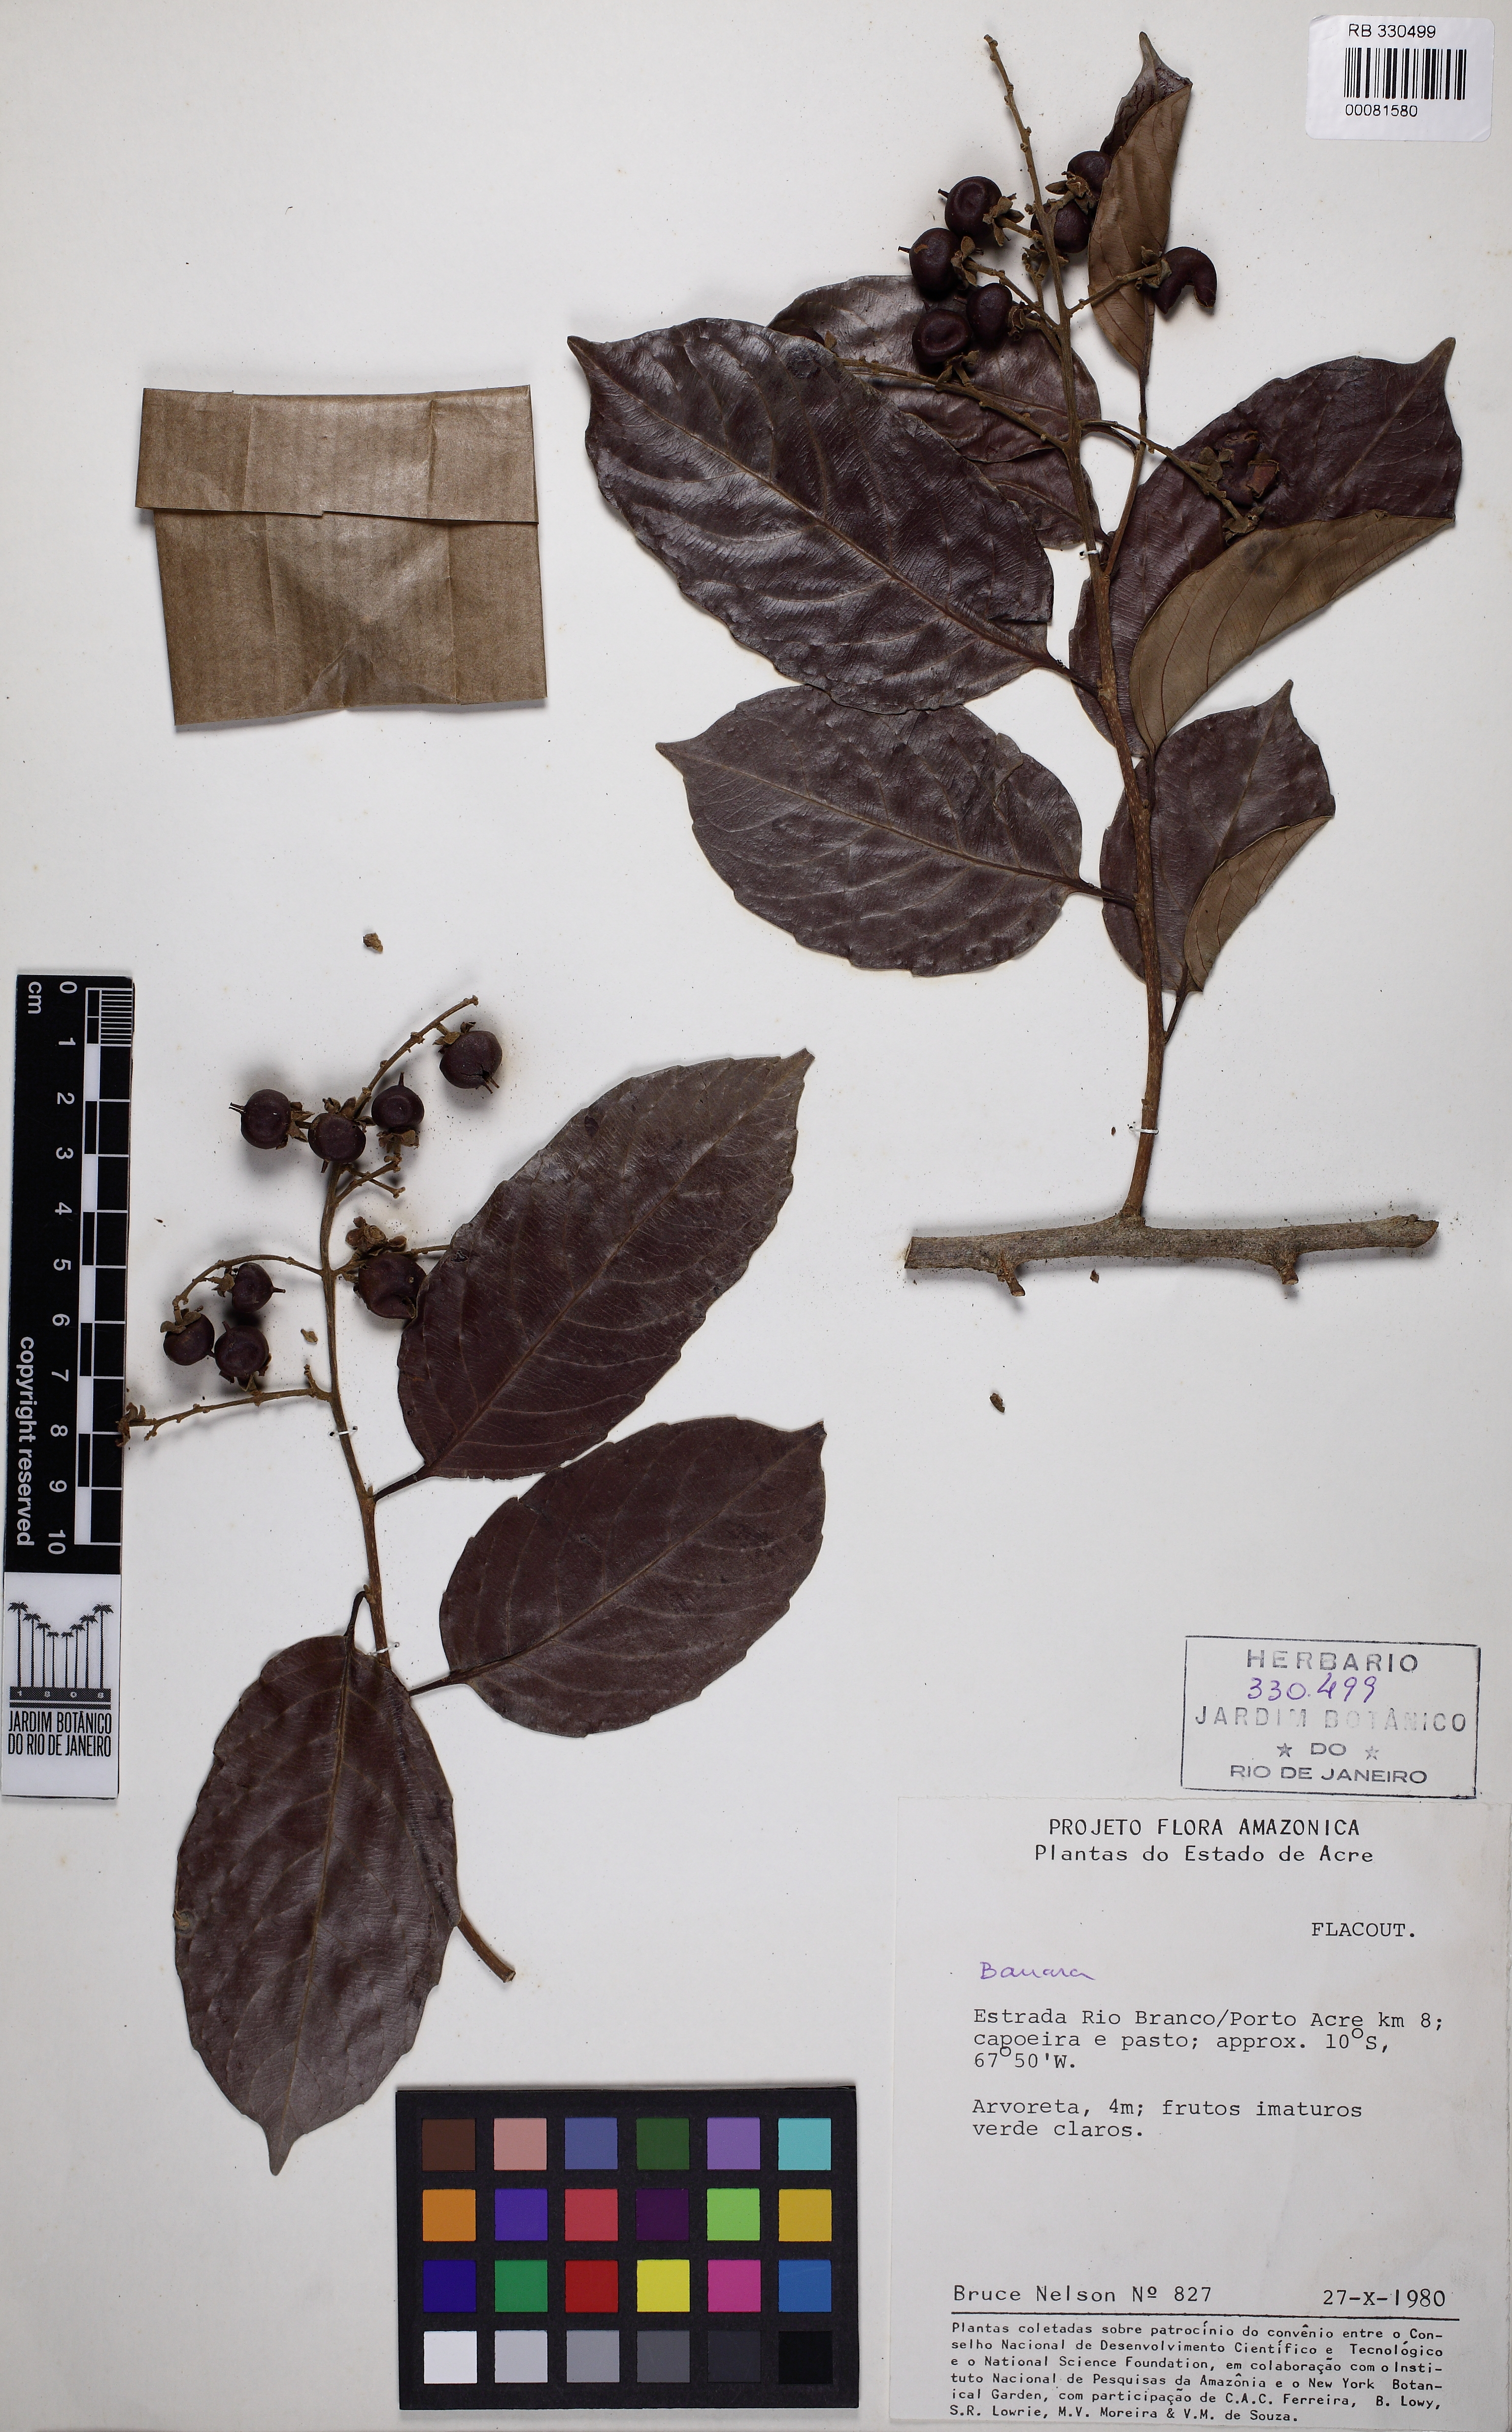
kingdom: Plantae
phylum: Tracheophyta
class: Magnoliopsida
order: Malpighiales
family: Salicaceae
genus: Banara
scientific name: Banara guianensis
